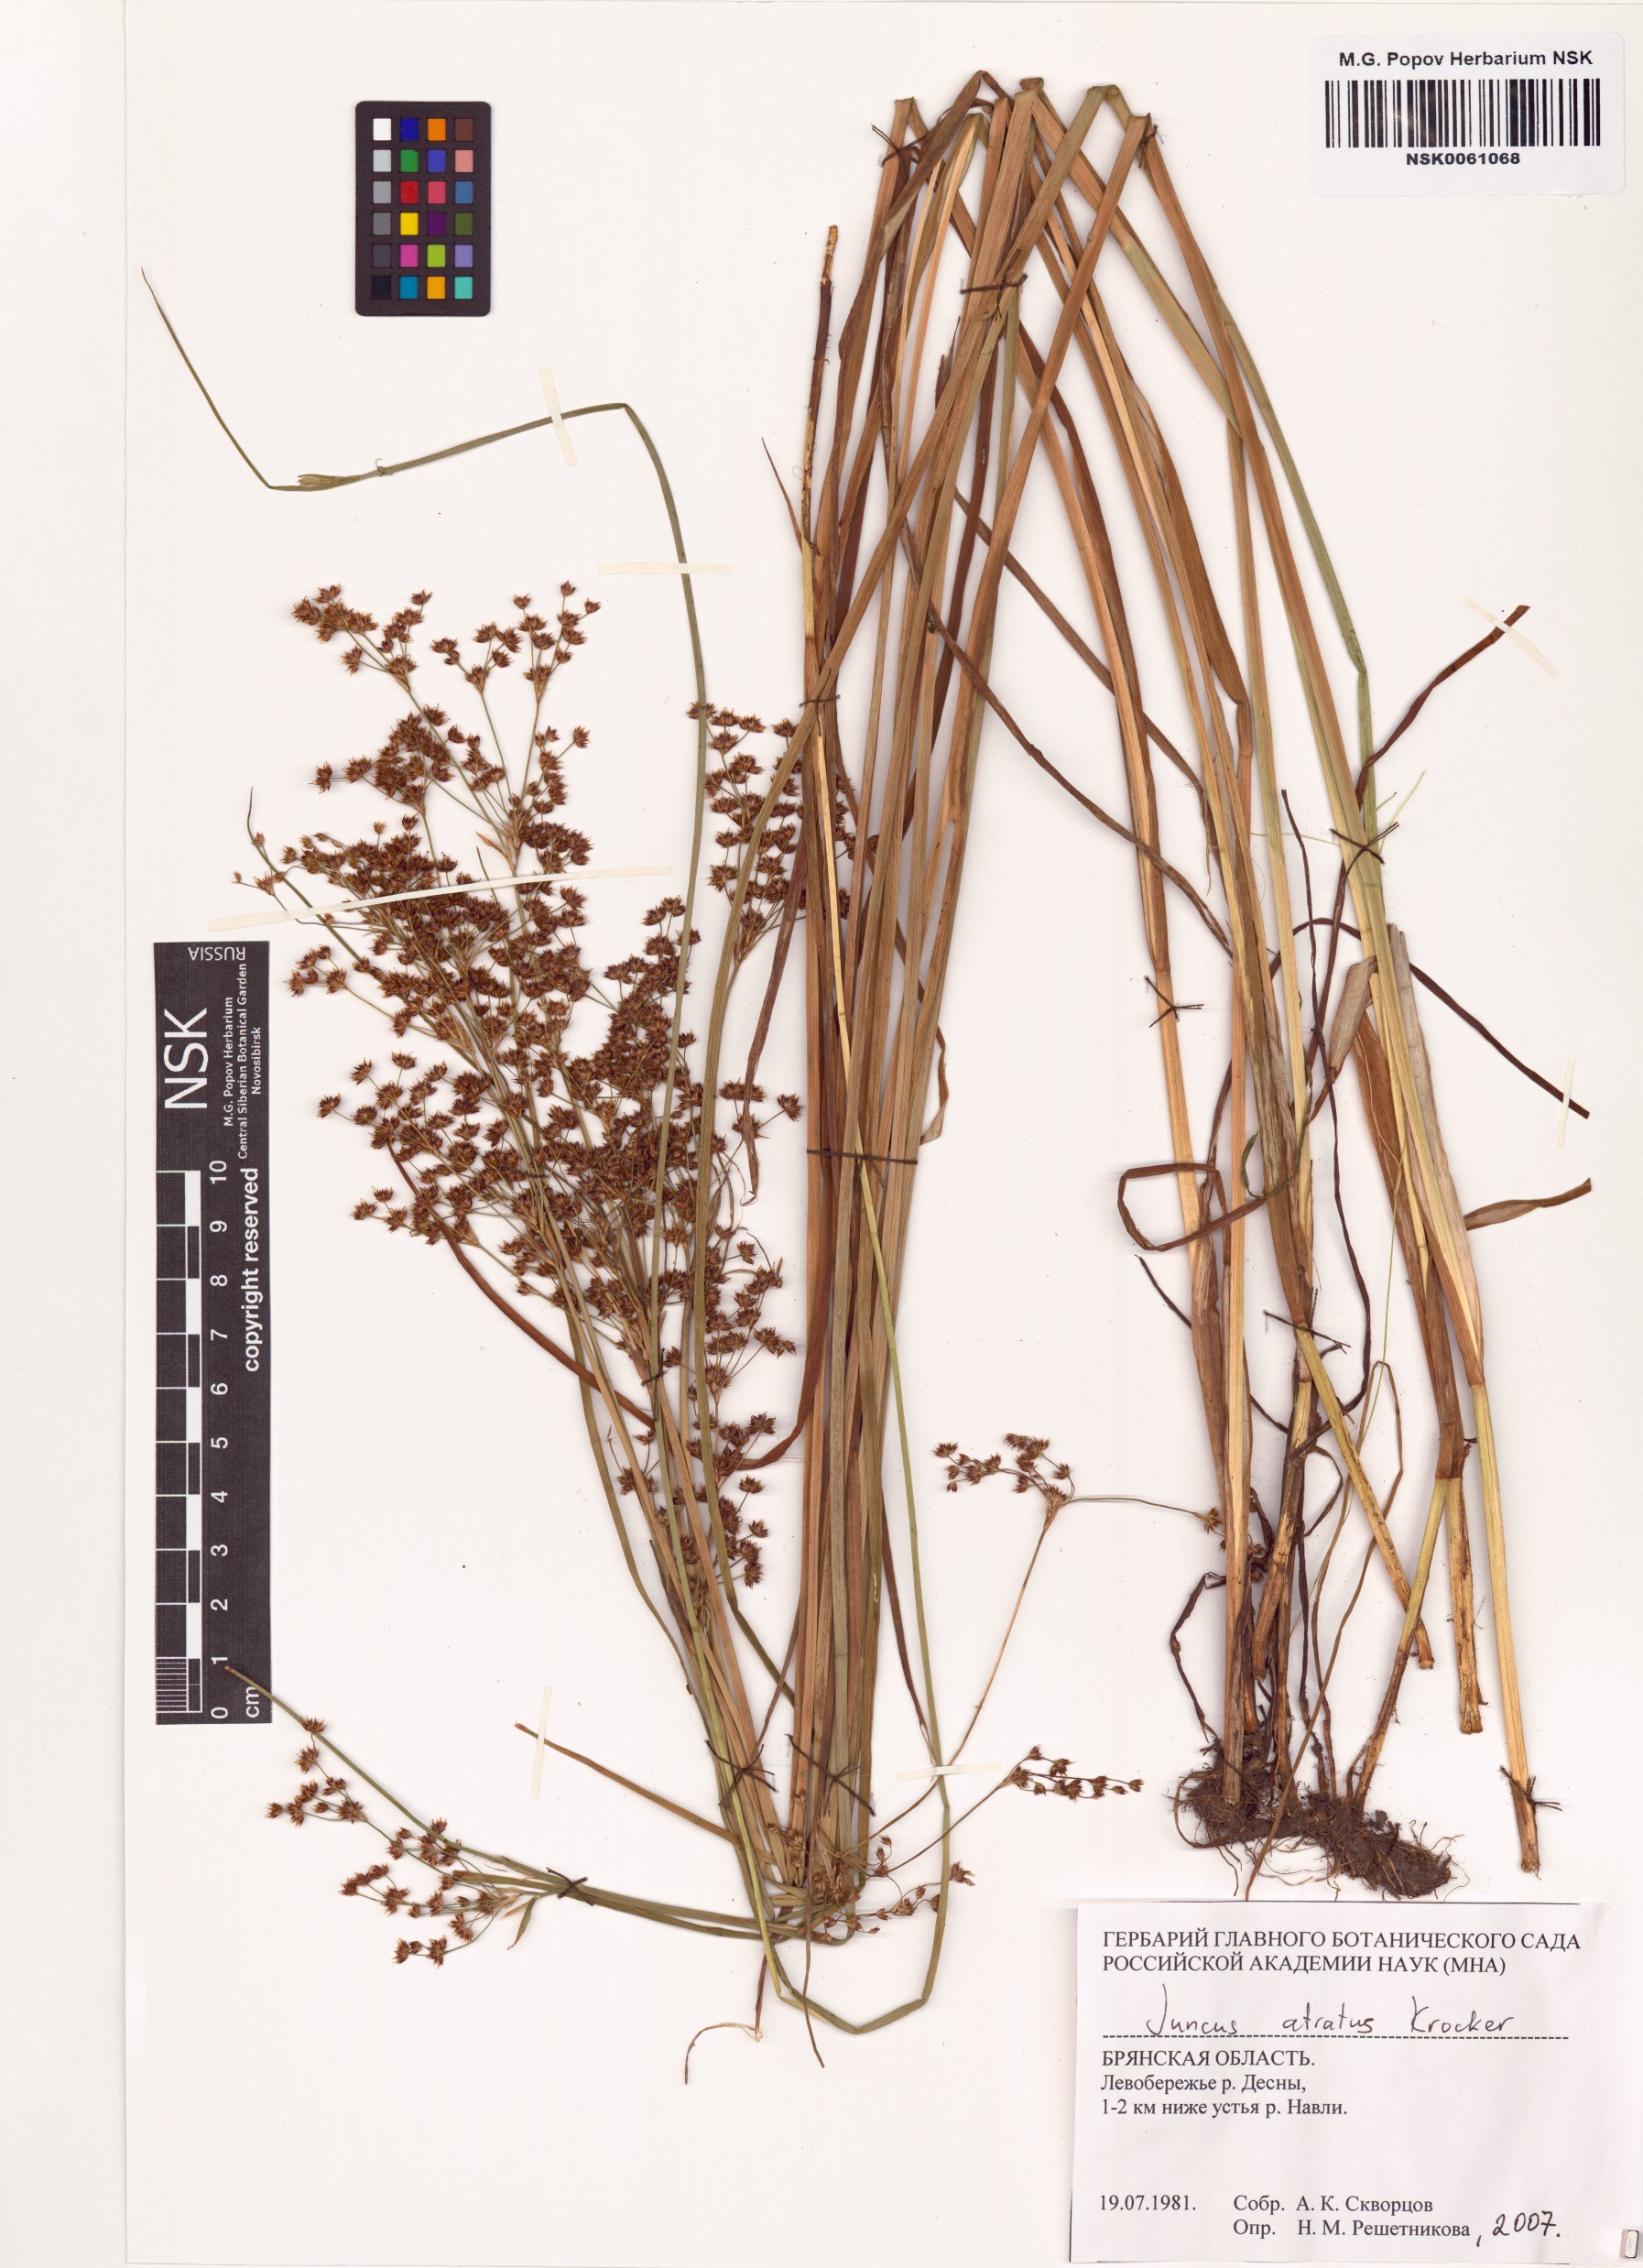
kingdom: Plantae
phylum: Tracheophyta
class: Liliopsida
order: Poales
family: Juncaceae
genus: Juncus
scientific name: Juncus atratus
